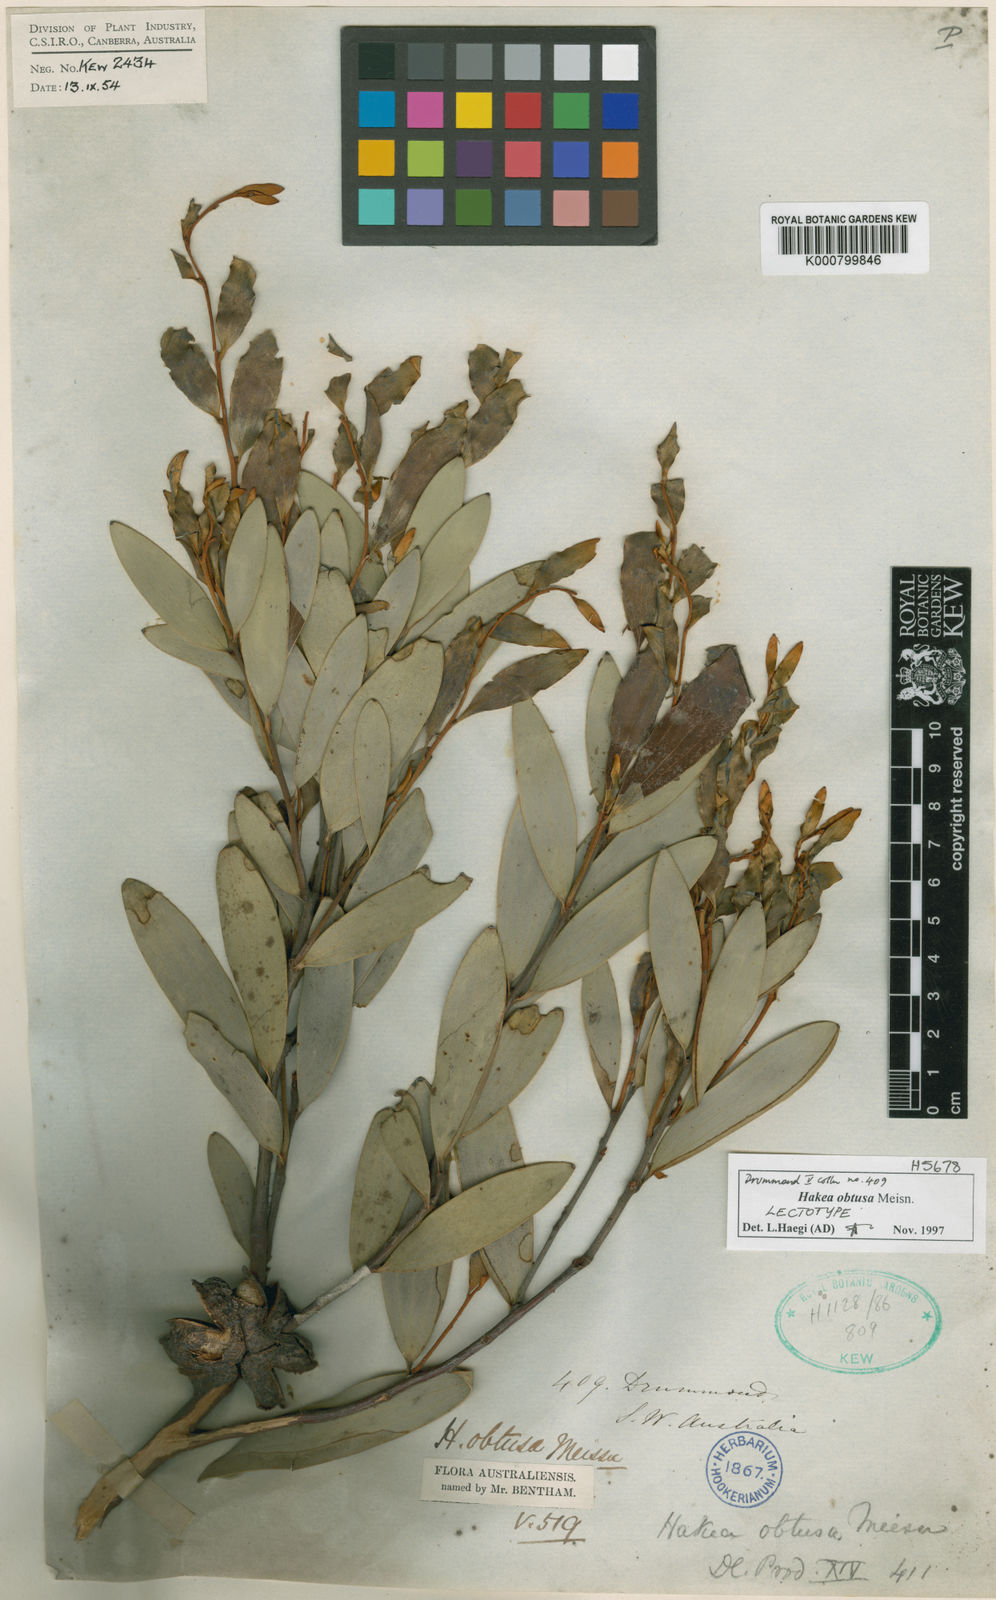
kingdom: Plantae
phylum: Tracheophyta
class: Magnoliopsida
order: Proteales
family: Proteaceae
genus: Hakea
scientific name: Hakea obtusa
